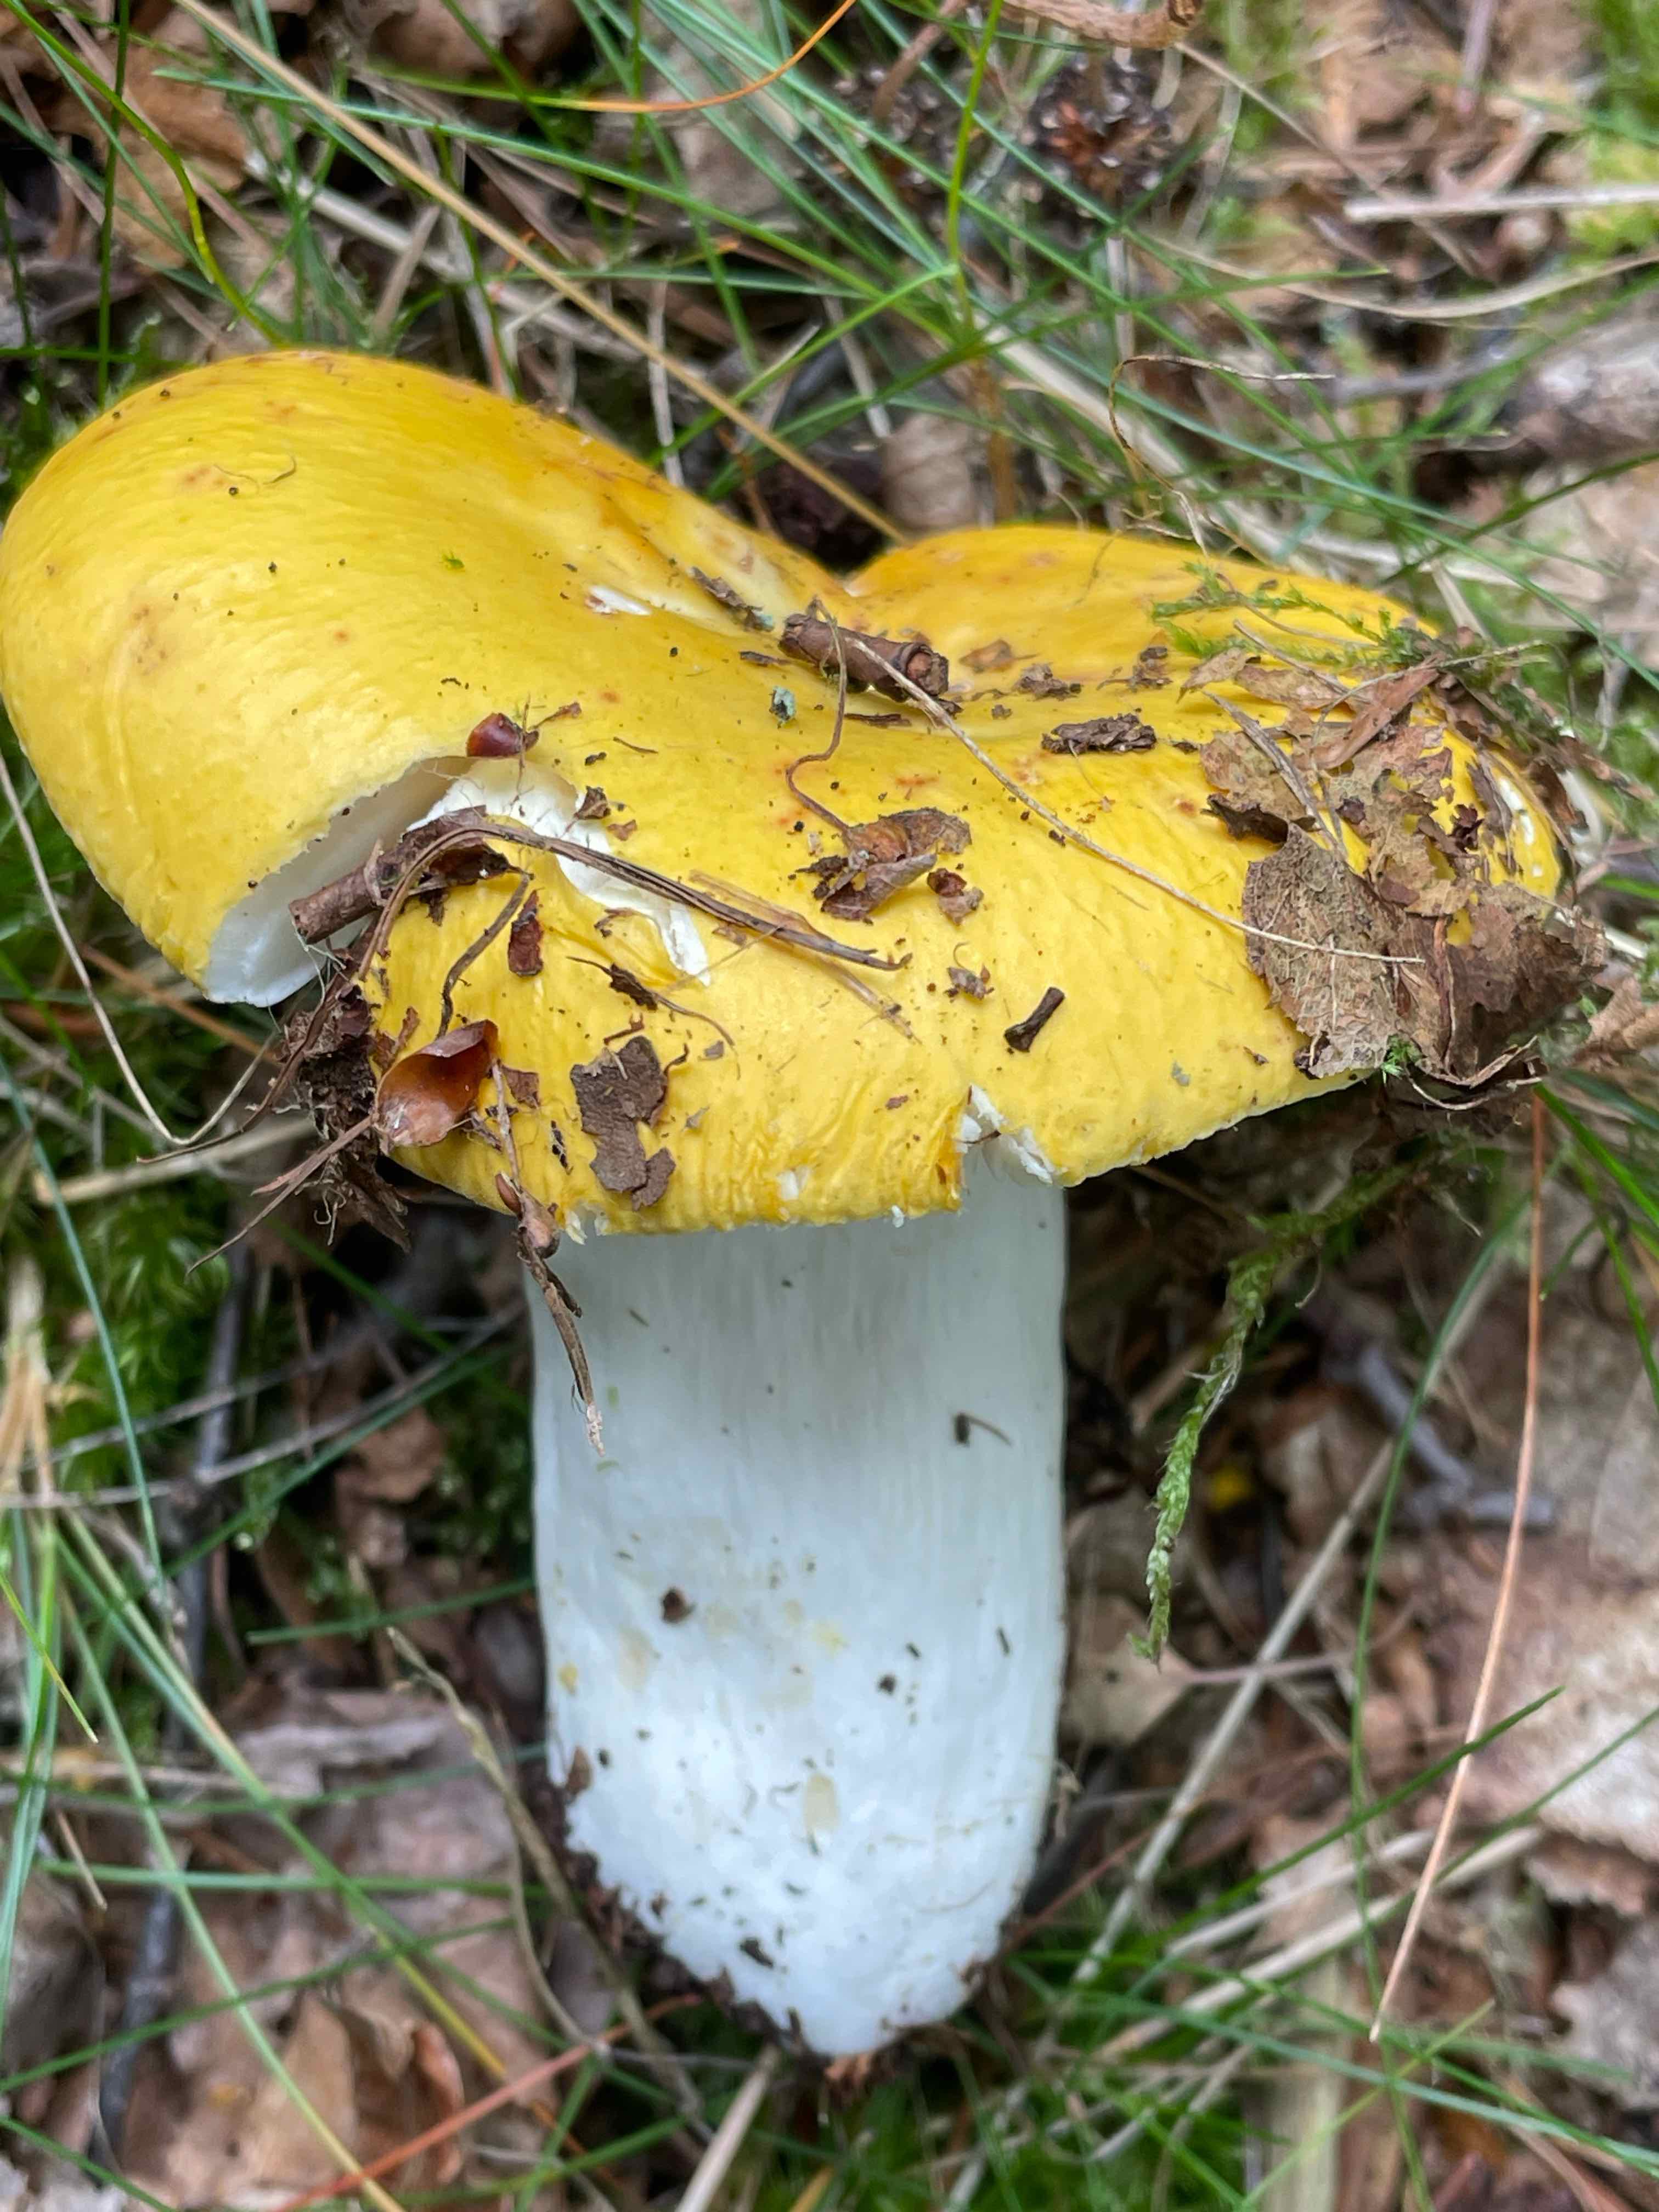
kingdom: Fungi
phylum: Basidiomycota
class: Agaricomycetes
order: Russulales
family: Russulaceae
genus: Russula
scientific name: Russula claroflava
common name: birke-skørhat
